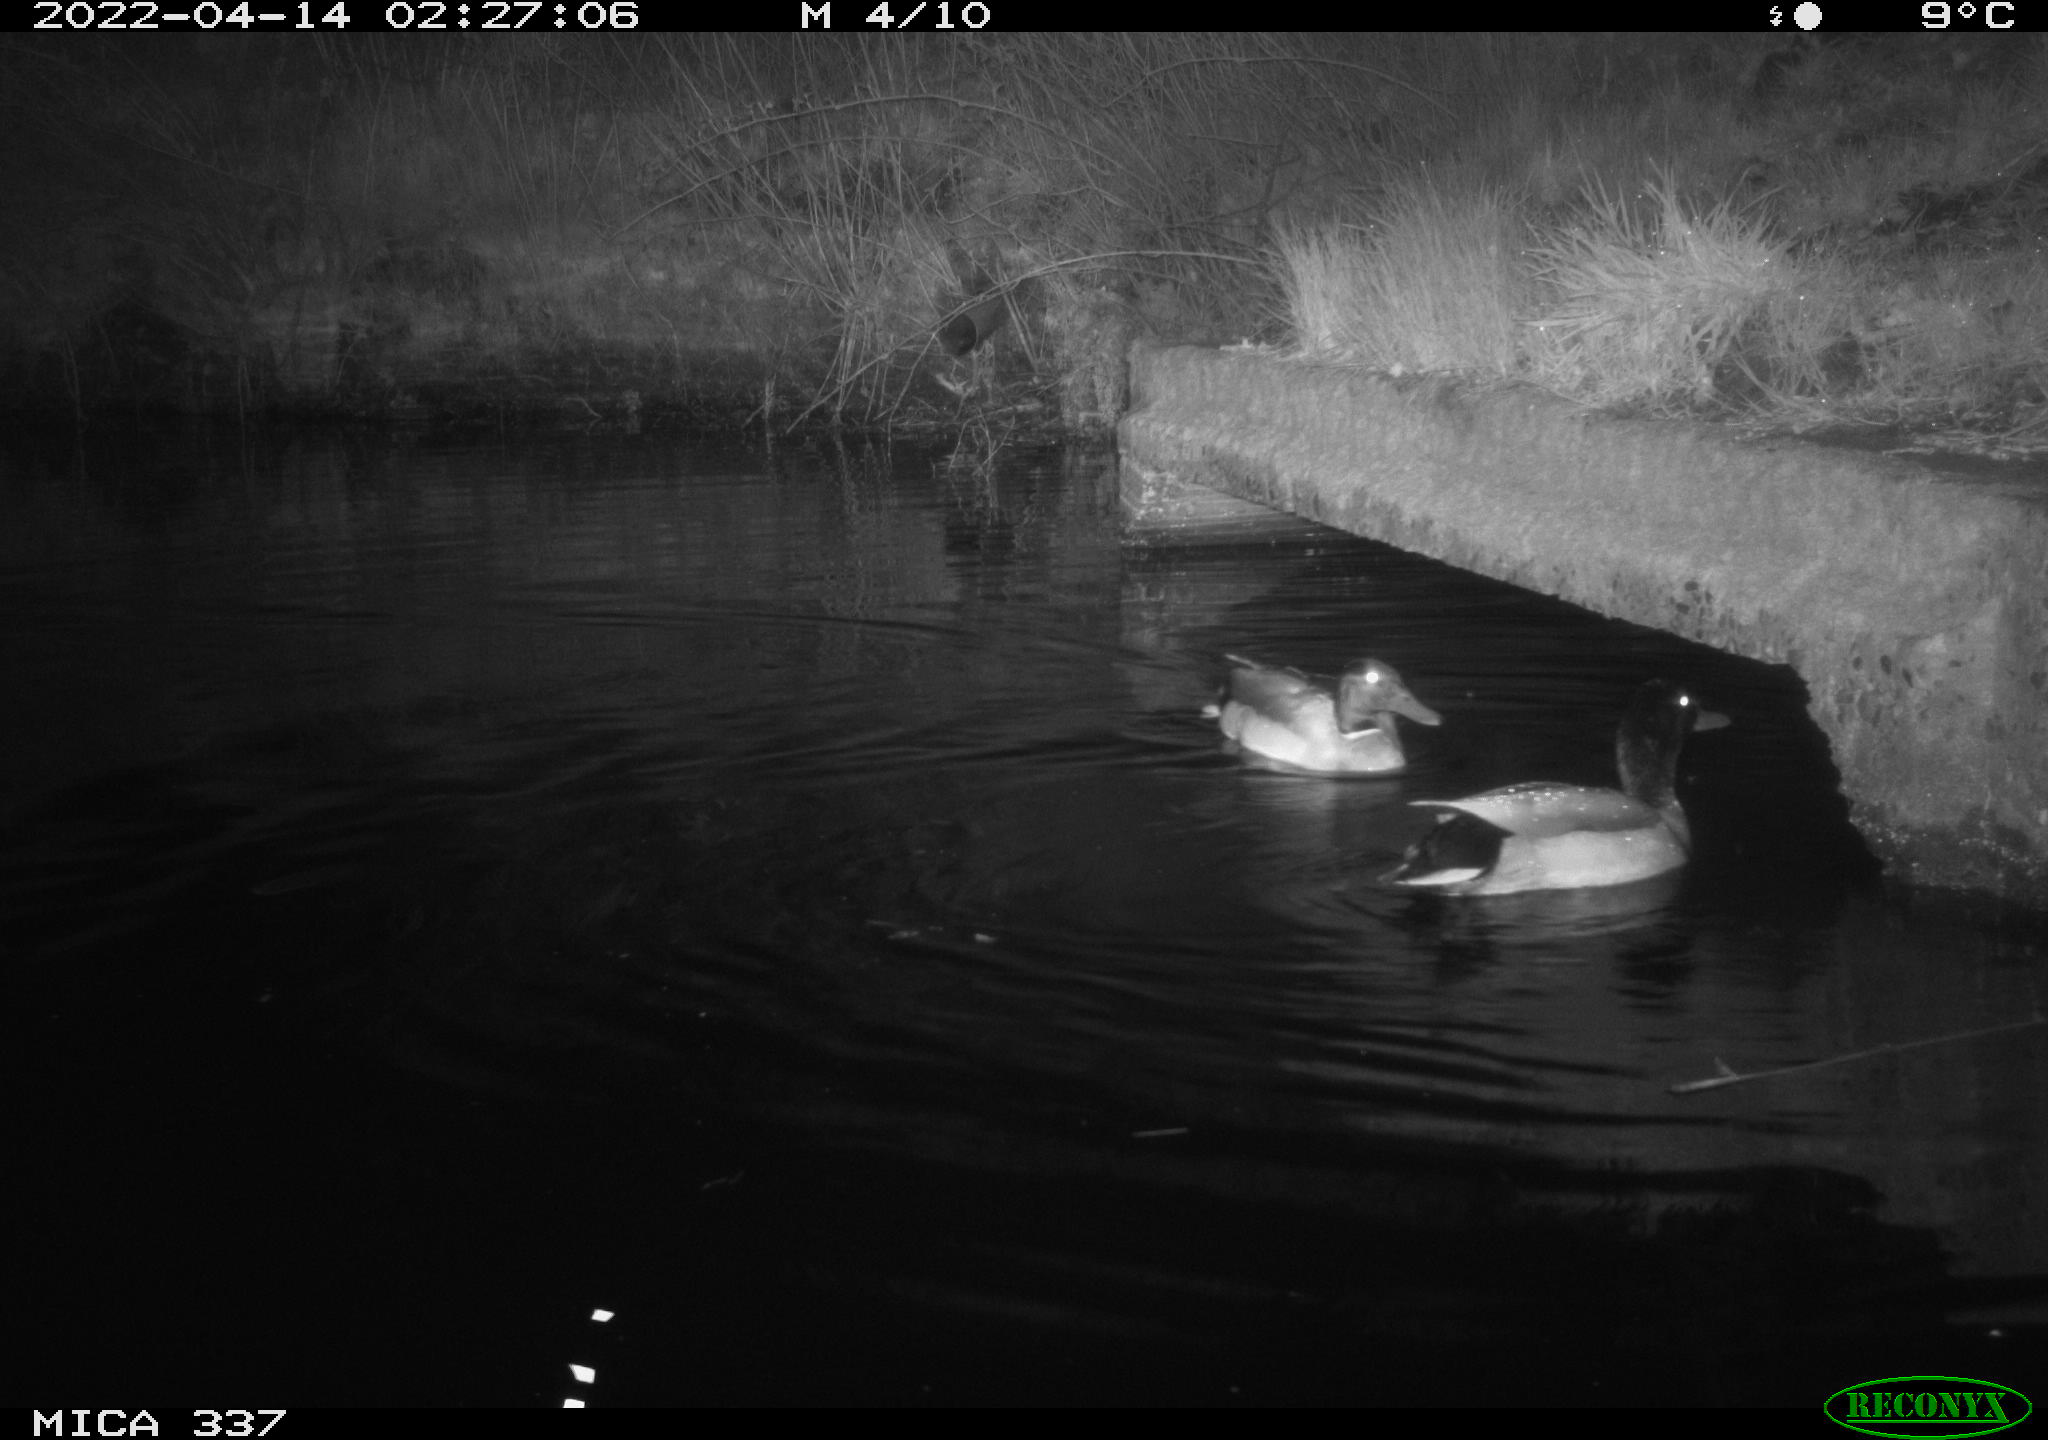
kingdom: Animalia
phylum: Chordata
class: Aves
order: Anseriformes
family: Anatidae
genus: Anas
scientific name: Anas platyrhynchos
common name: Mallard
